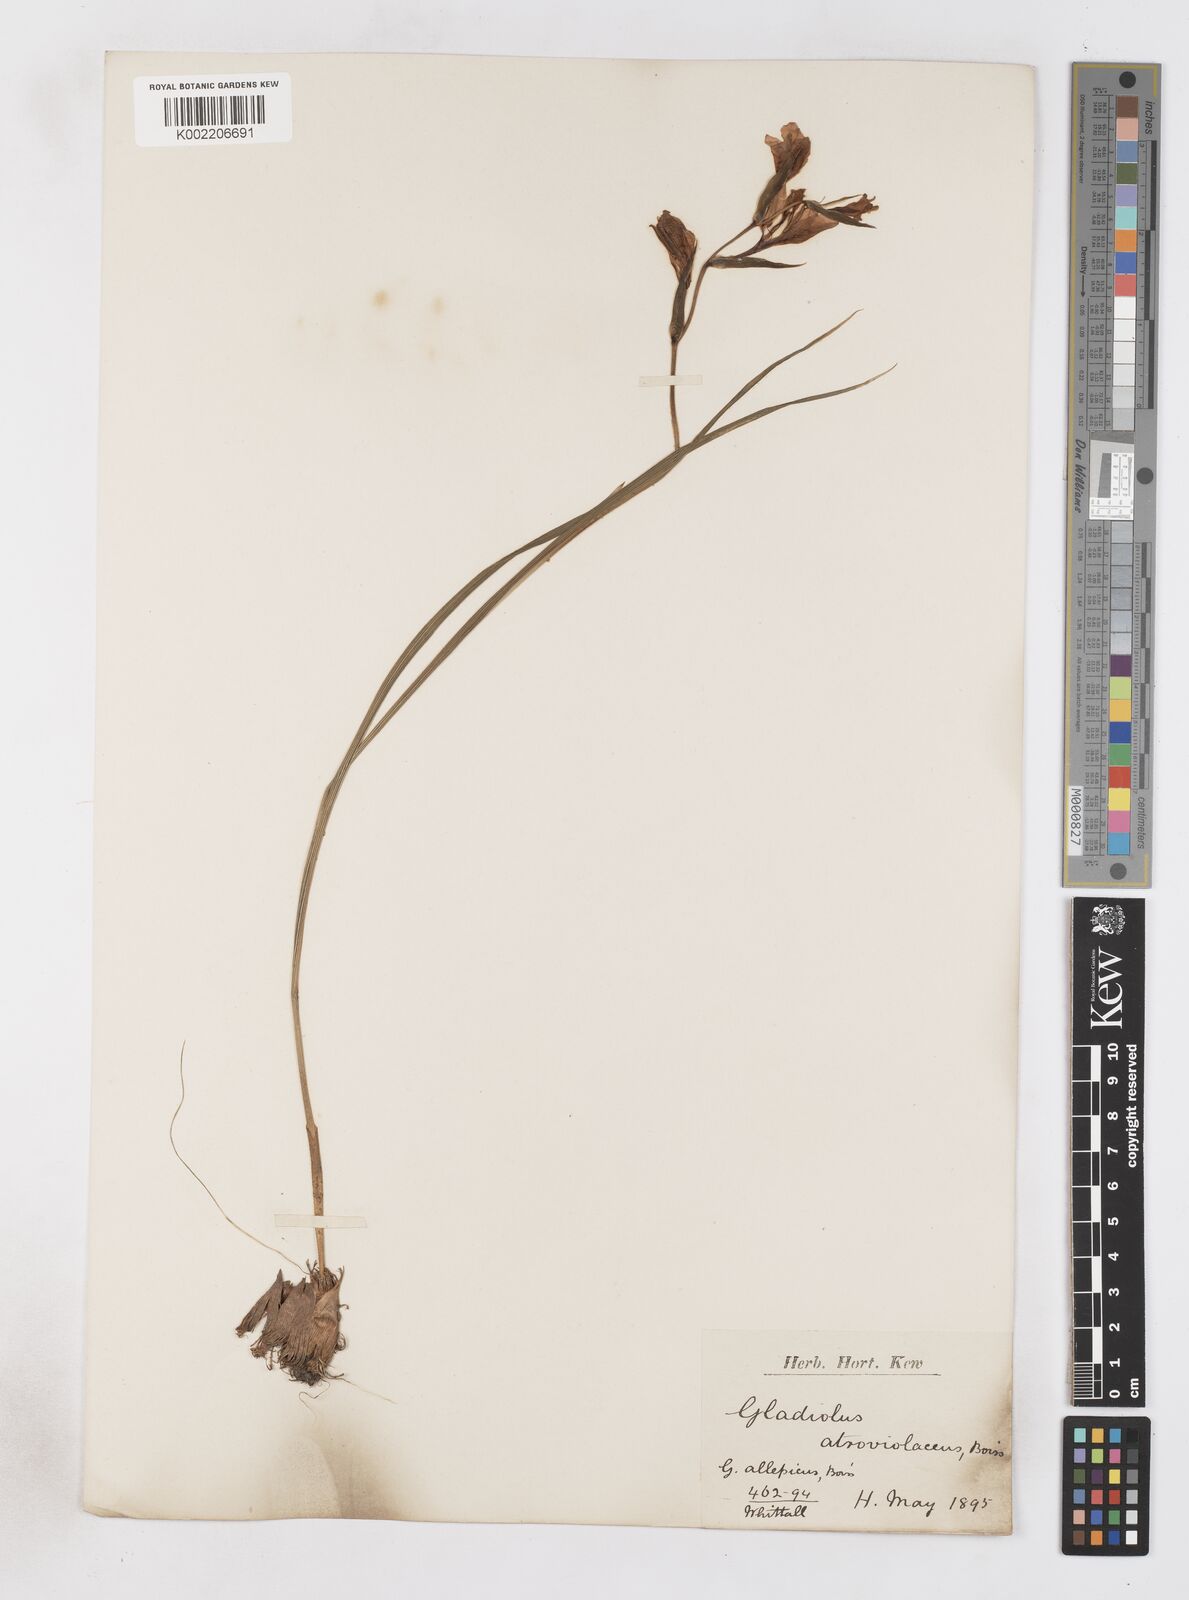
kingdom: Plantae
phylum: Tracheophyta
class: Liliopsida
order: Asparagales
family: Iridaceae
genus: Gladiolus
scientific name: Gladiolus atroviolaceus
